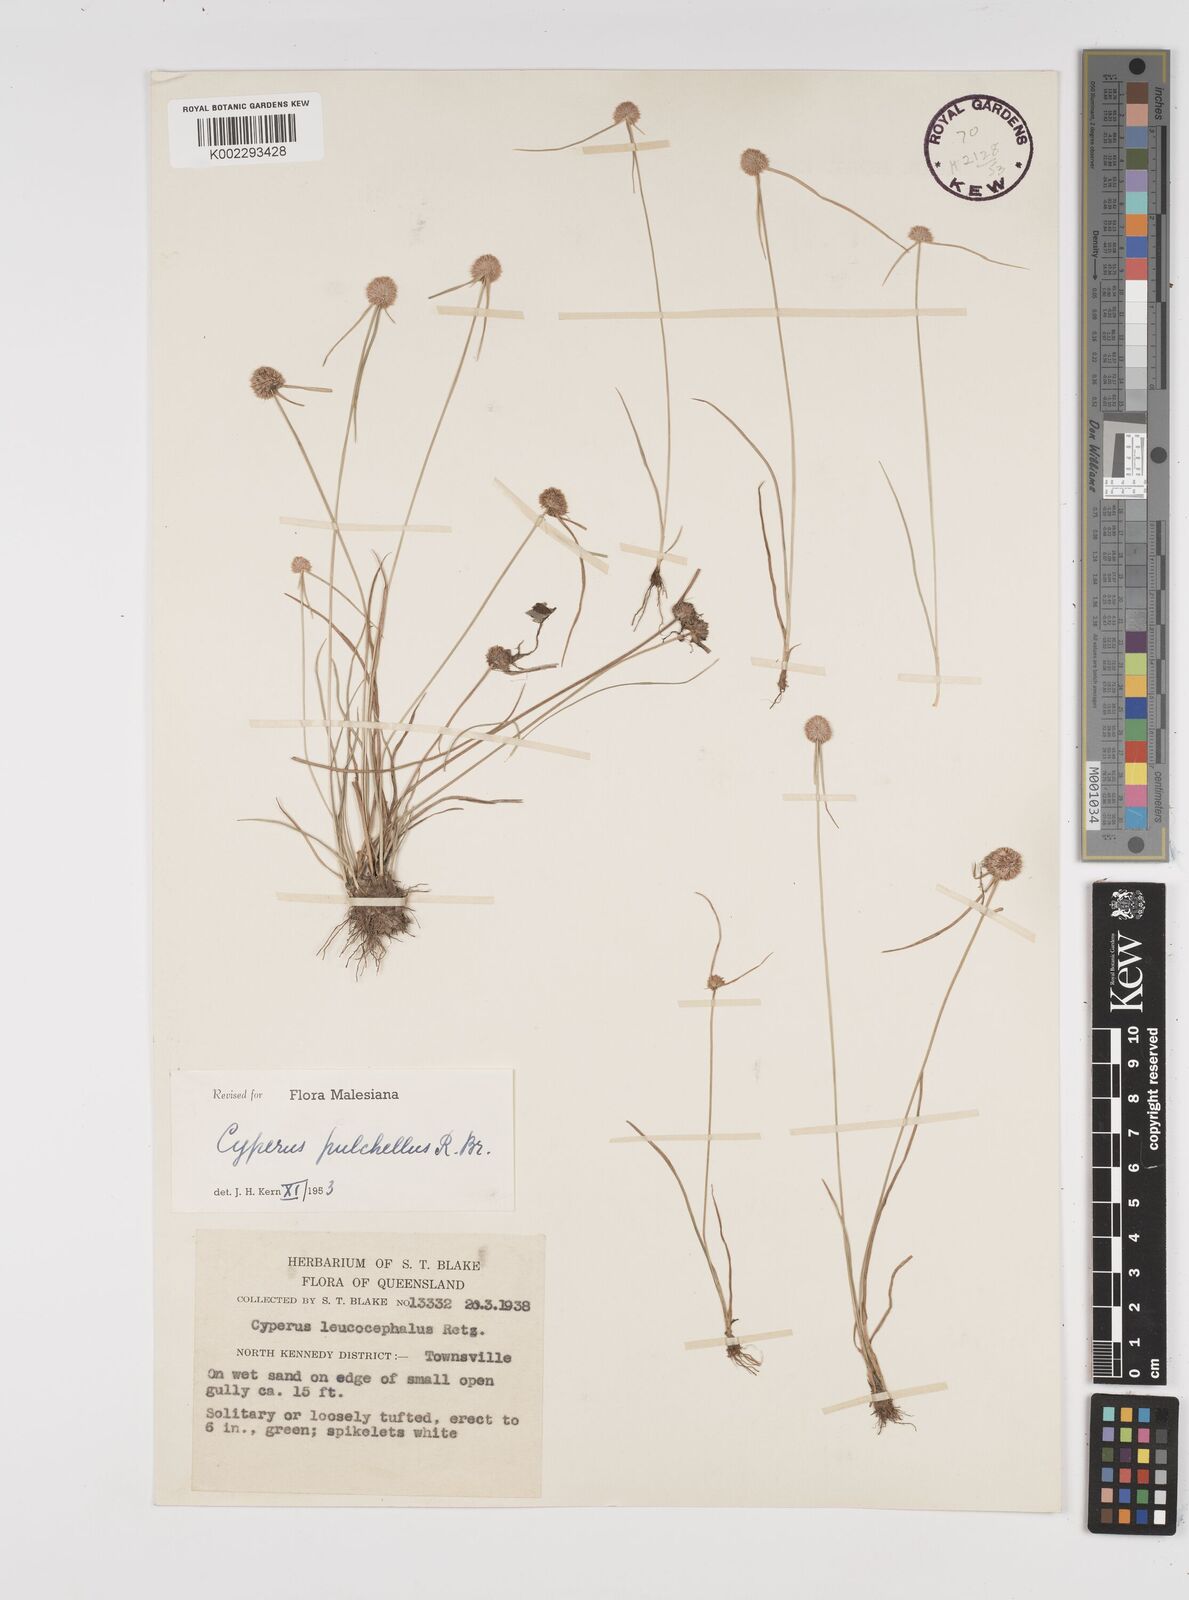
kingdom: Plantae
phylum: Tracheophyta
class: Liliopsida
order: Poales
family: Cyperaceae
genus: Cyperus
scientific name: Cyperus pulchellus
